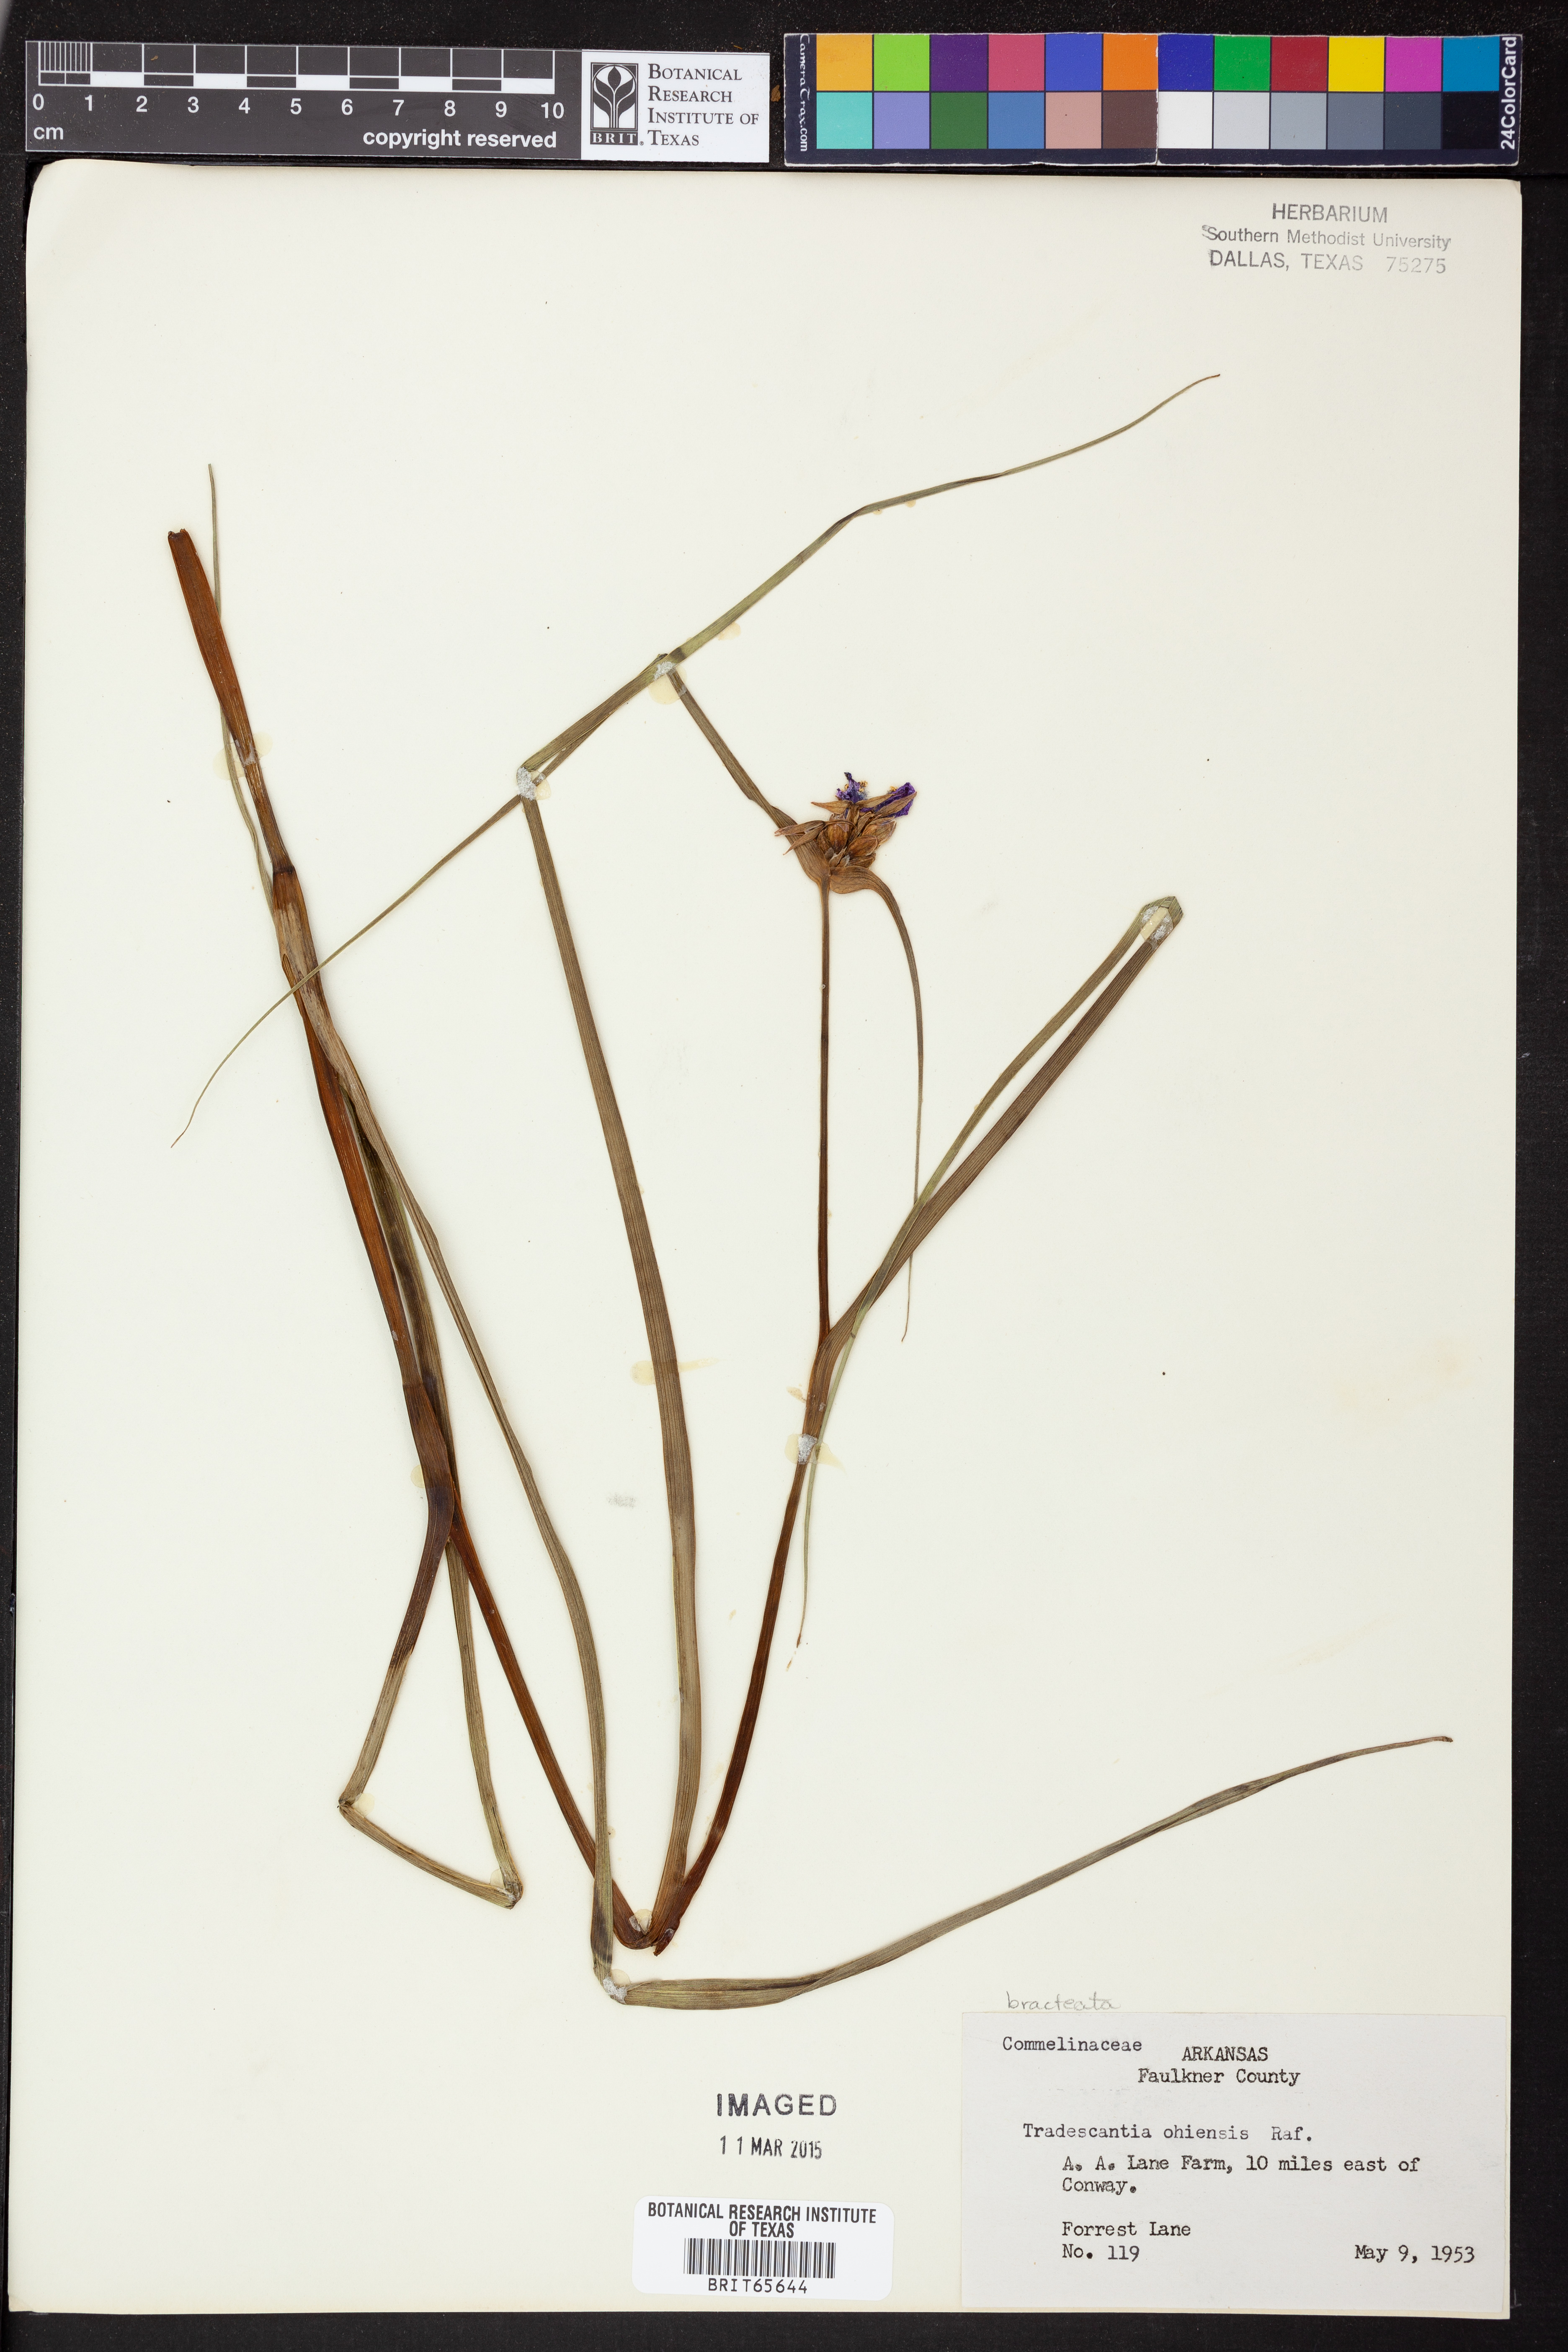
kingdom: Plantae
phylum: Tracheophyta
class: Liliopsida
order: Commelinales
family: Commelinaceae
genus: Tradescantia
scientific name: Tradescantia ohiensis
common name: Ohio spiderwort
